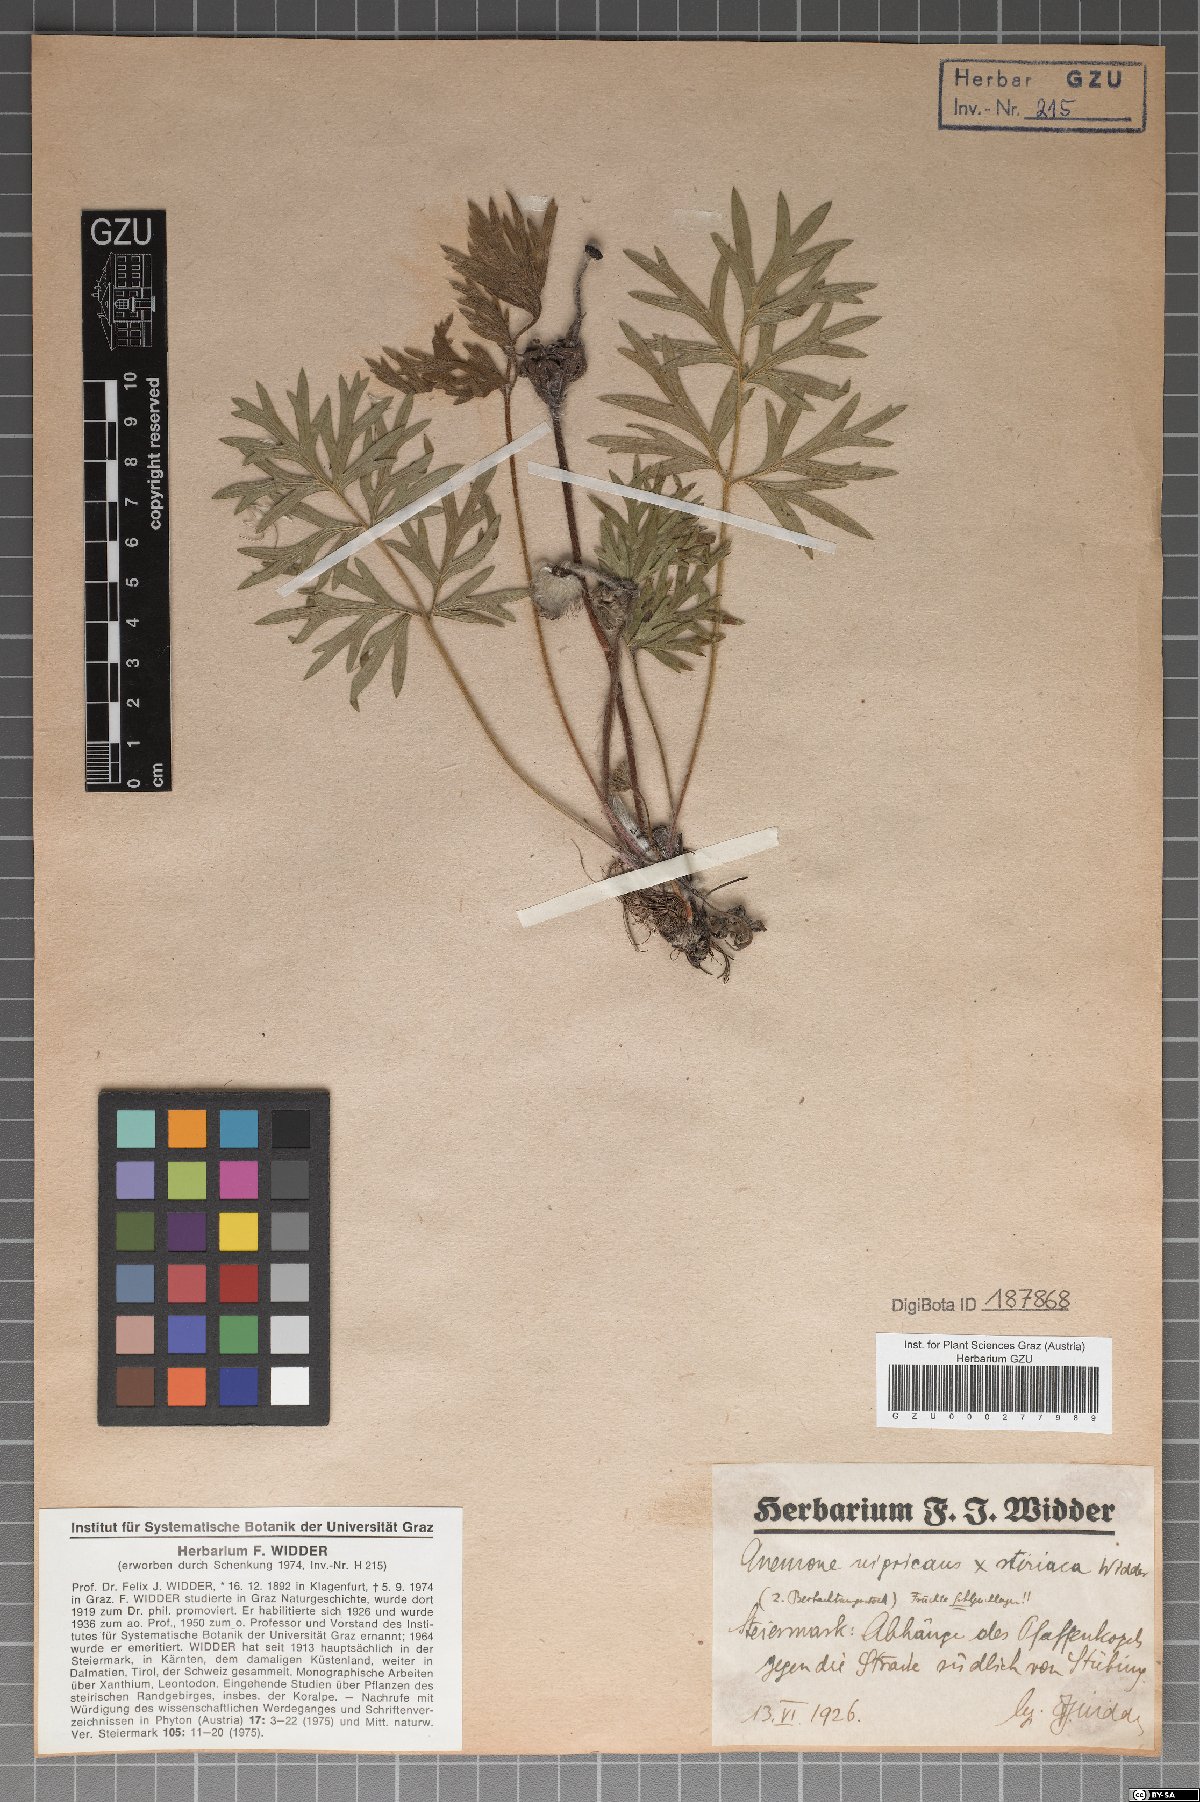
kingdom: Plantae
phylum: Tracheophyta
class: Magnoliopsida
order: Ranunculales
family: Ranunculaceae
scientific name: Ranunculaceae
